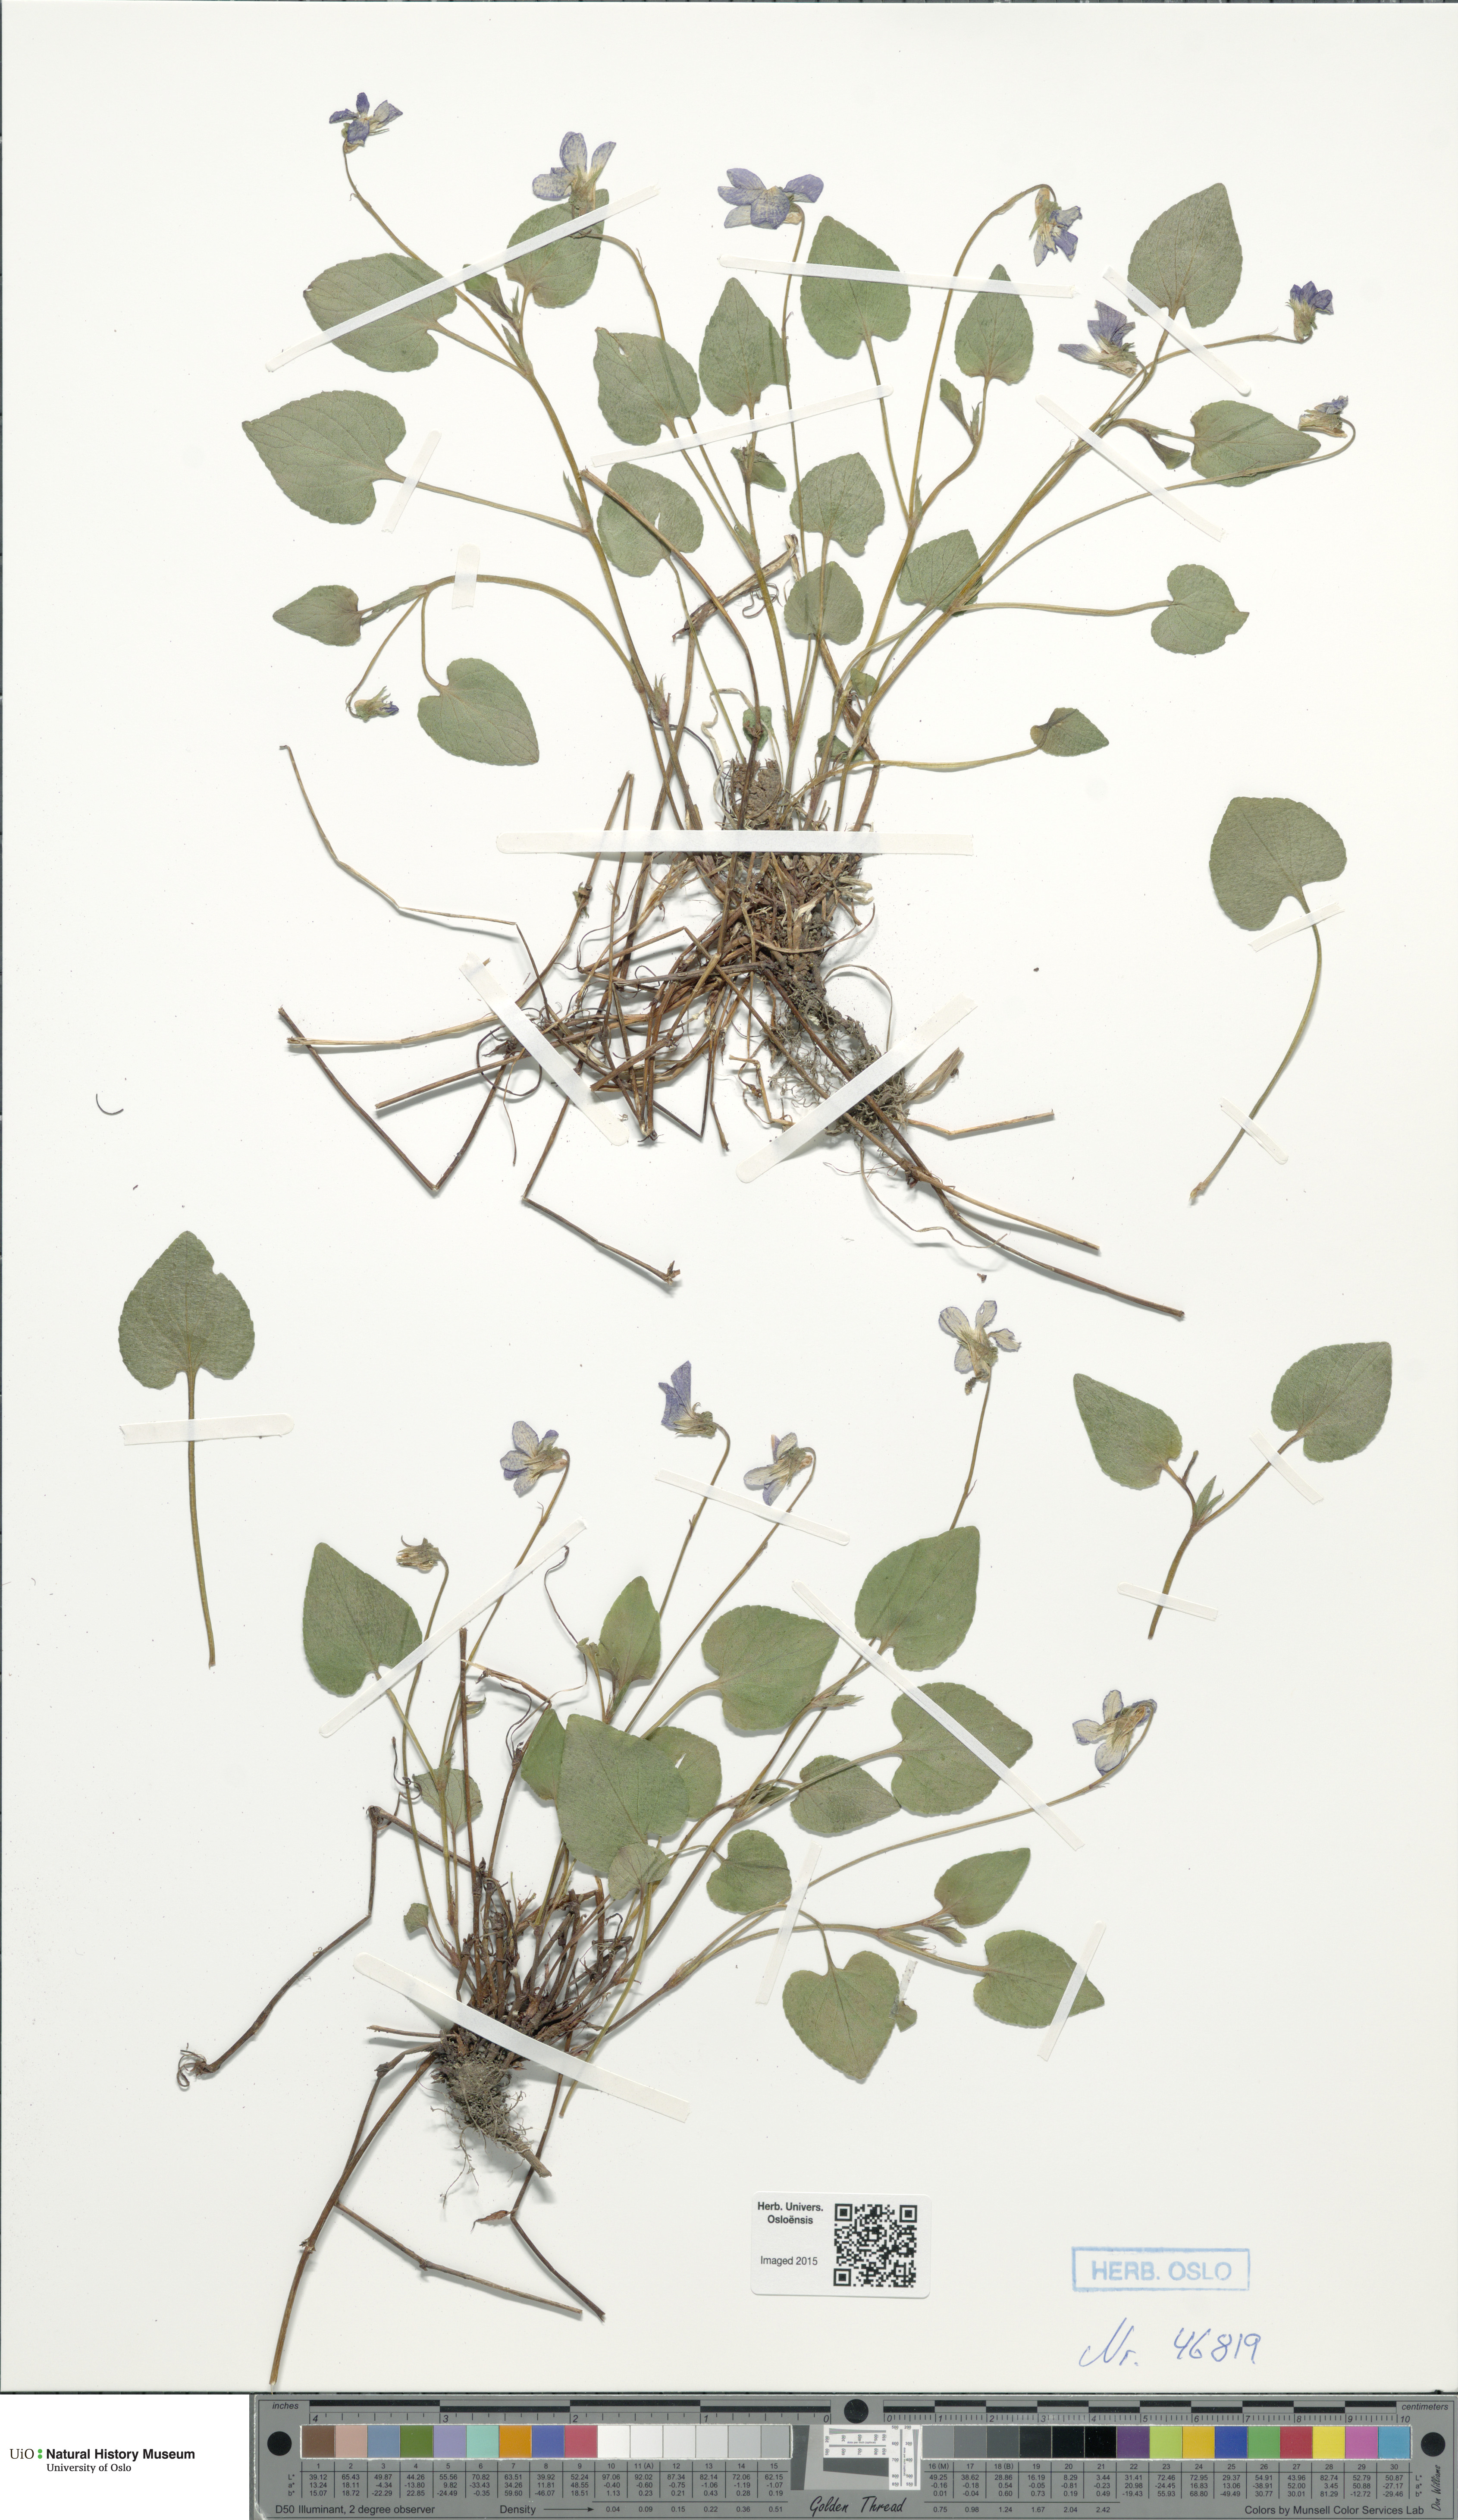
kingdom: Plantae
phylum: Tracheophyta
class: Magnoliopsida
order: Malpighiales
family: Violaceae
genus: Viola
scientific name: Viola
